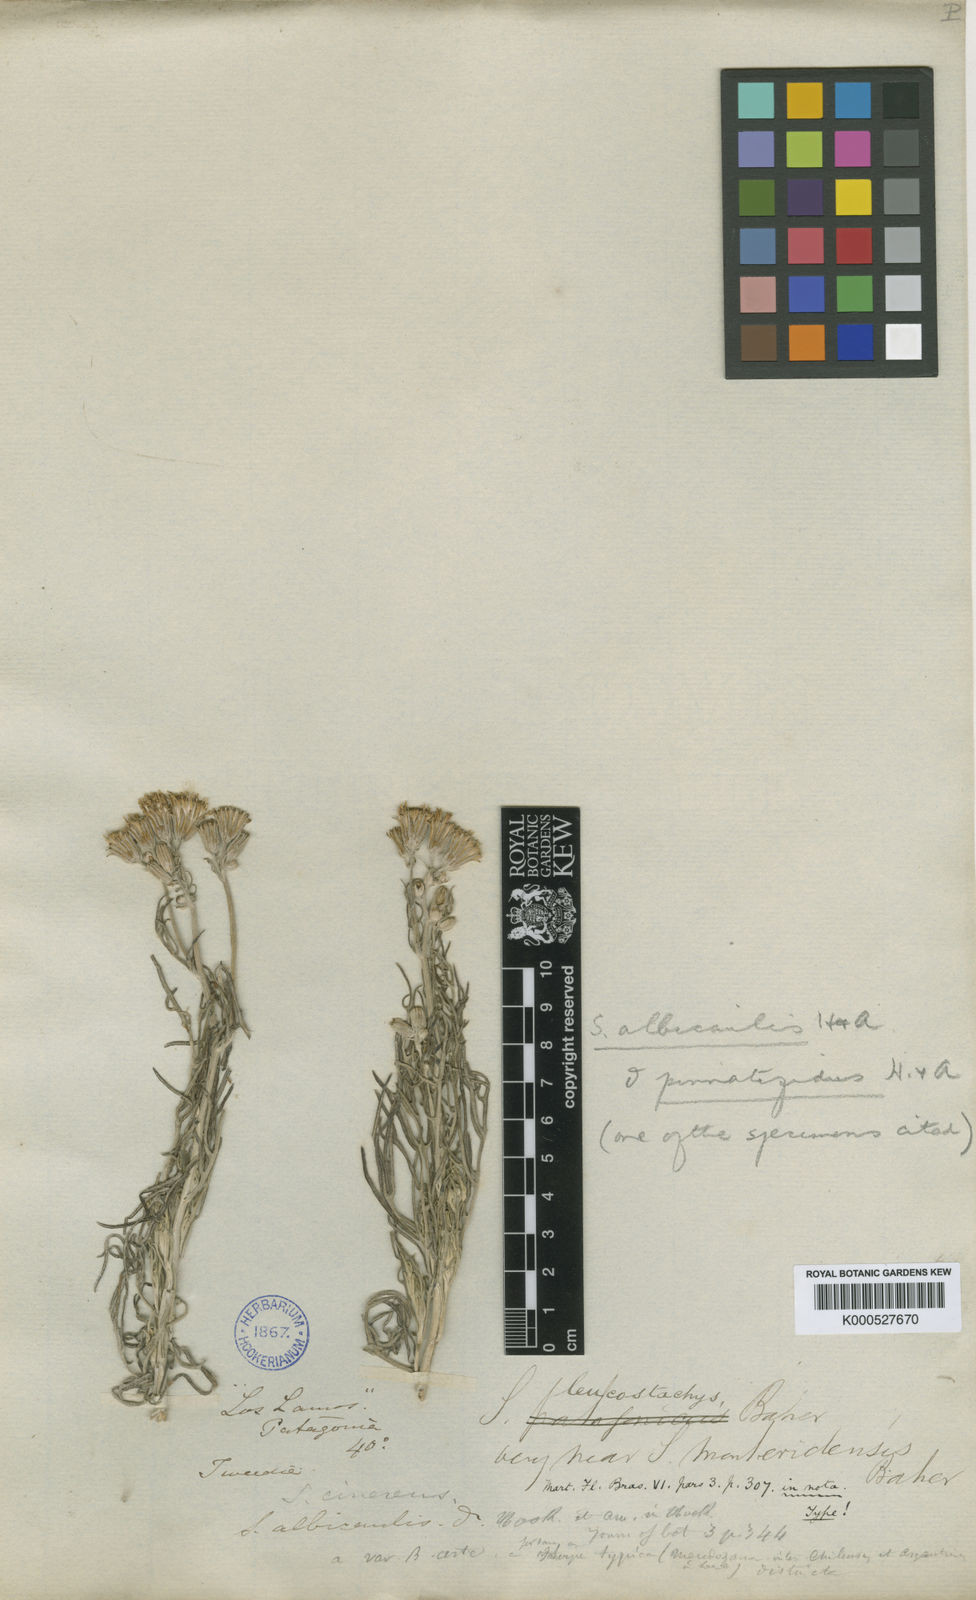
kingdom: Plantae
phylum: Tracheophyta
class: Magnoliopsida
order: Asterales
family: Asteraceae
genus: Senecio
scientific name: Senecio leucostachys
